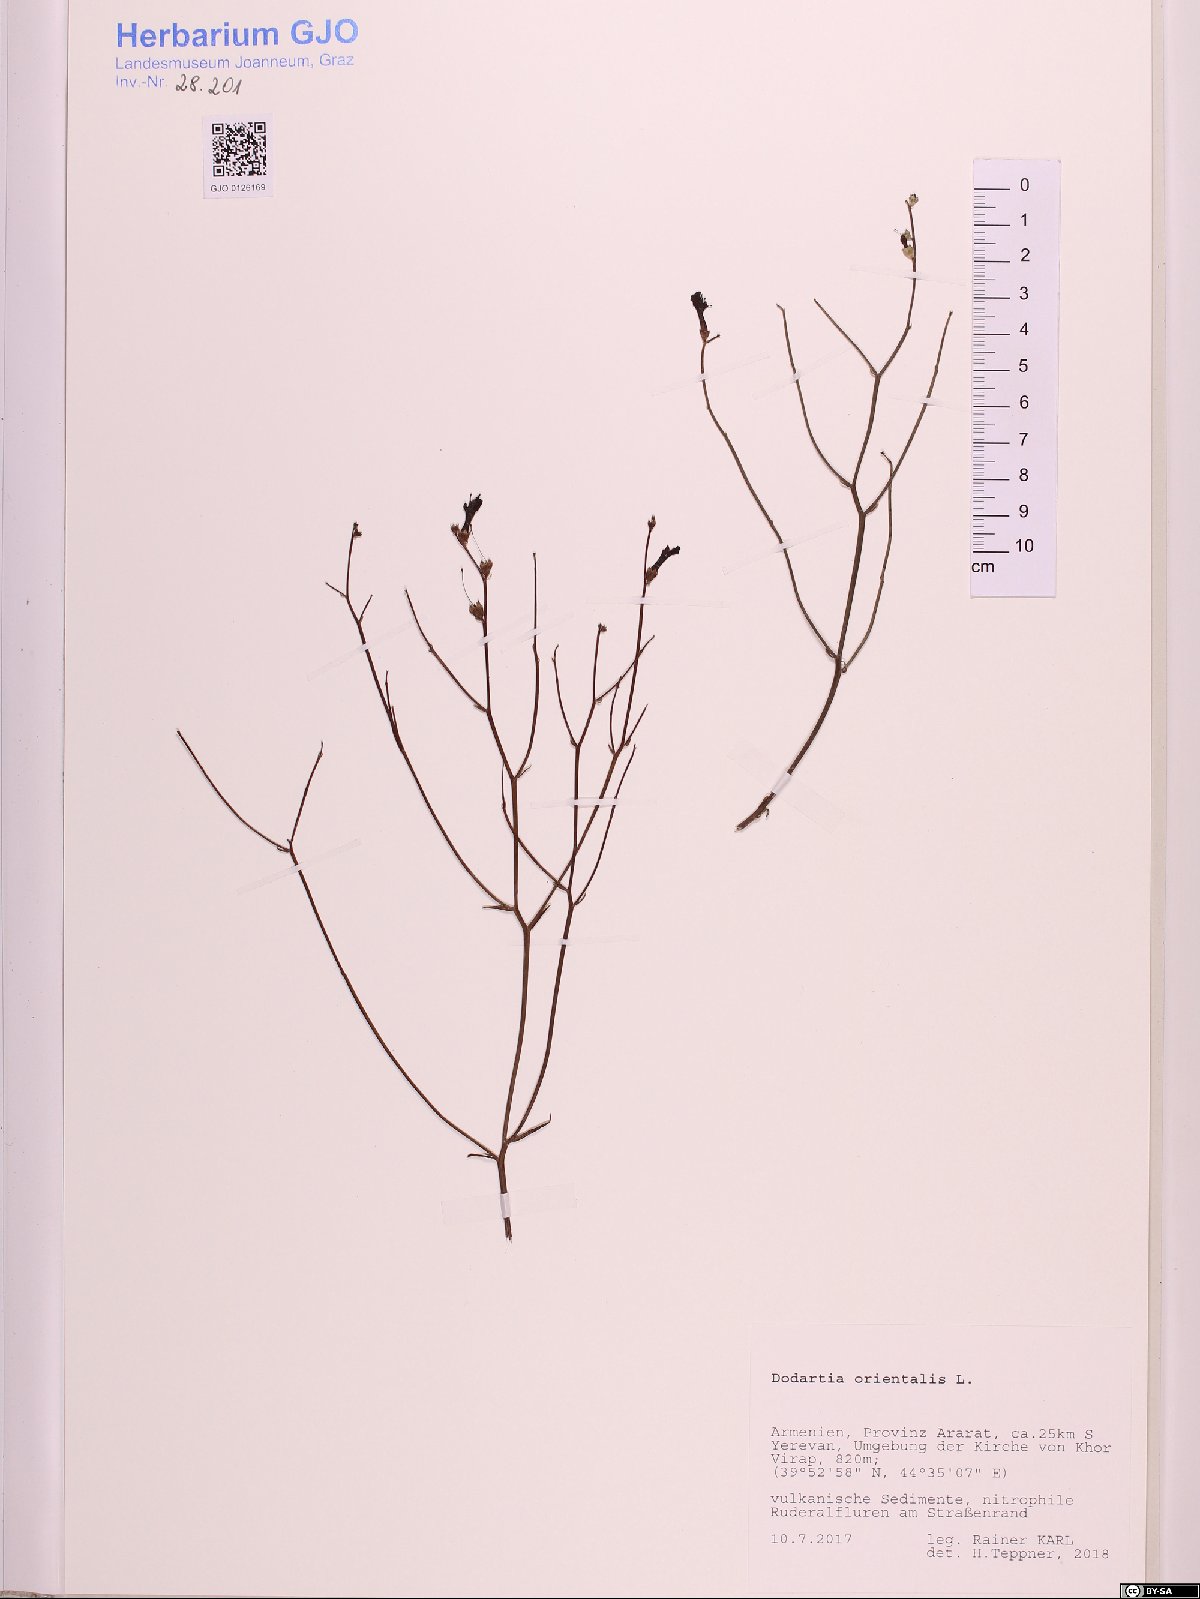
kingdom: Plantae
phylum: Tracheophyta
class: Magnoliopsida
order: Lamiales
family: Mazaceae
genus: Dodartia
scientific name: Dodartia orientalis
